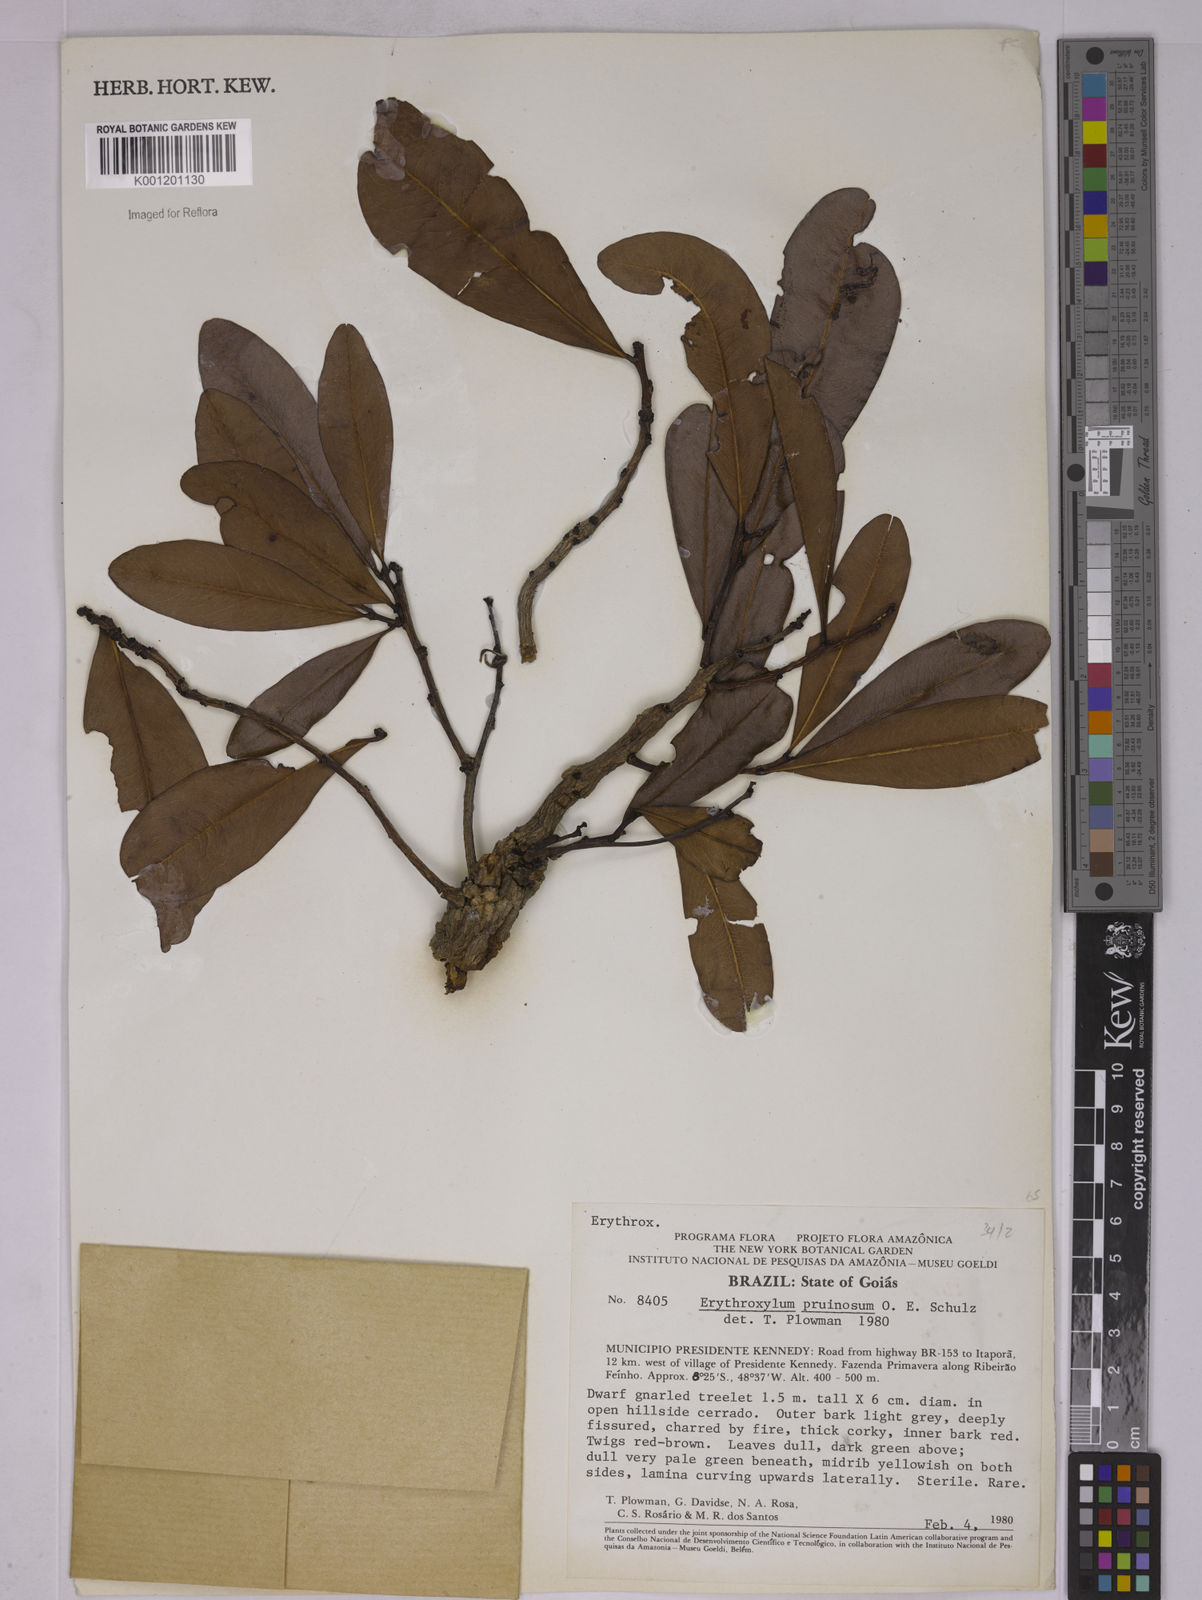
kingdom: Plantae
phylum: Tracheophyta
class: Magnoliopsida
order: Malpighiales
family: Erythroxylaceae
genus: Erythroxylum
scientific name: Erythroxylum pruinosum
